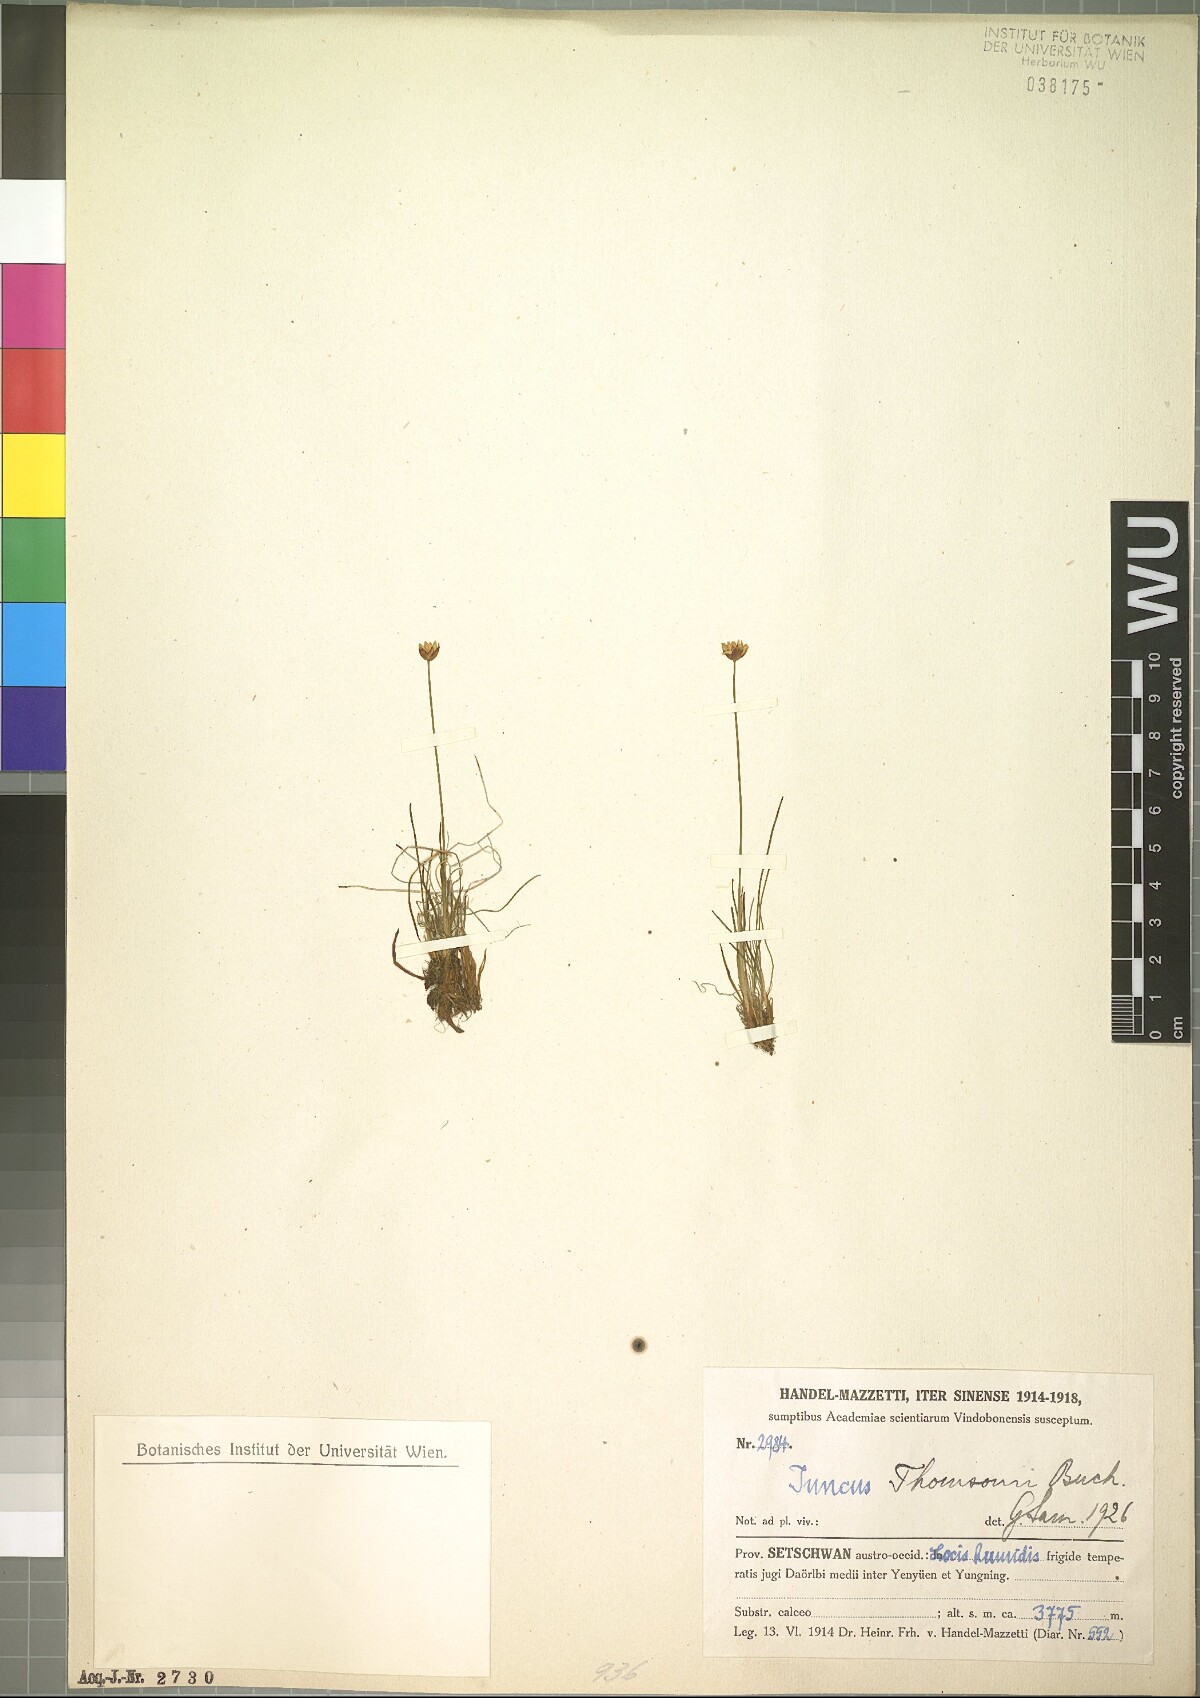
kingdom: Plantae
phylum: Tracheophyta
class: Liliopsida
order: Poales
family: Juncaceae
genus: Juncus
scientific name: Juncus thomsonii
